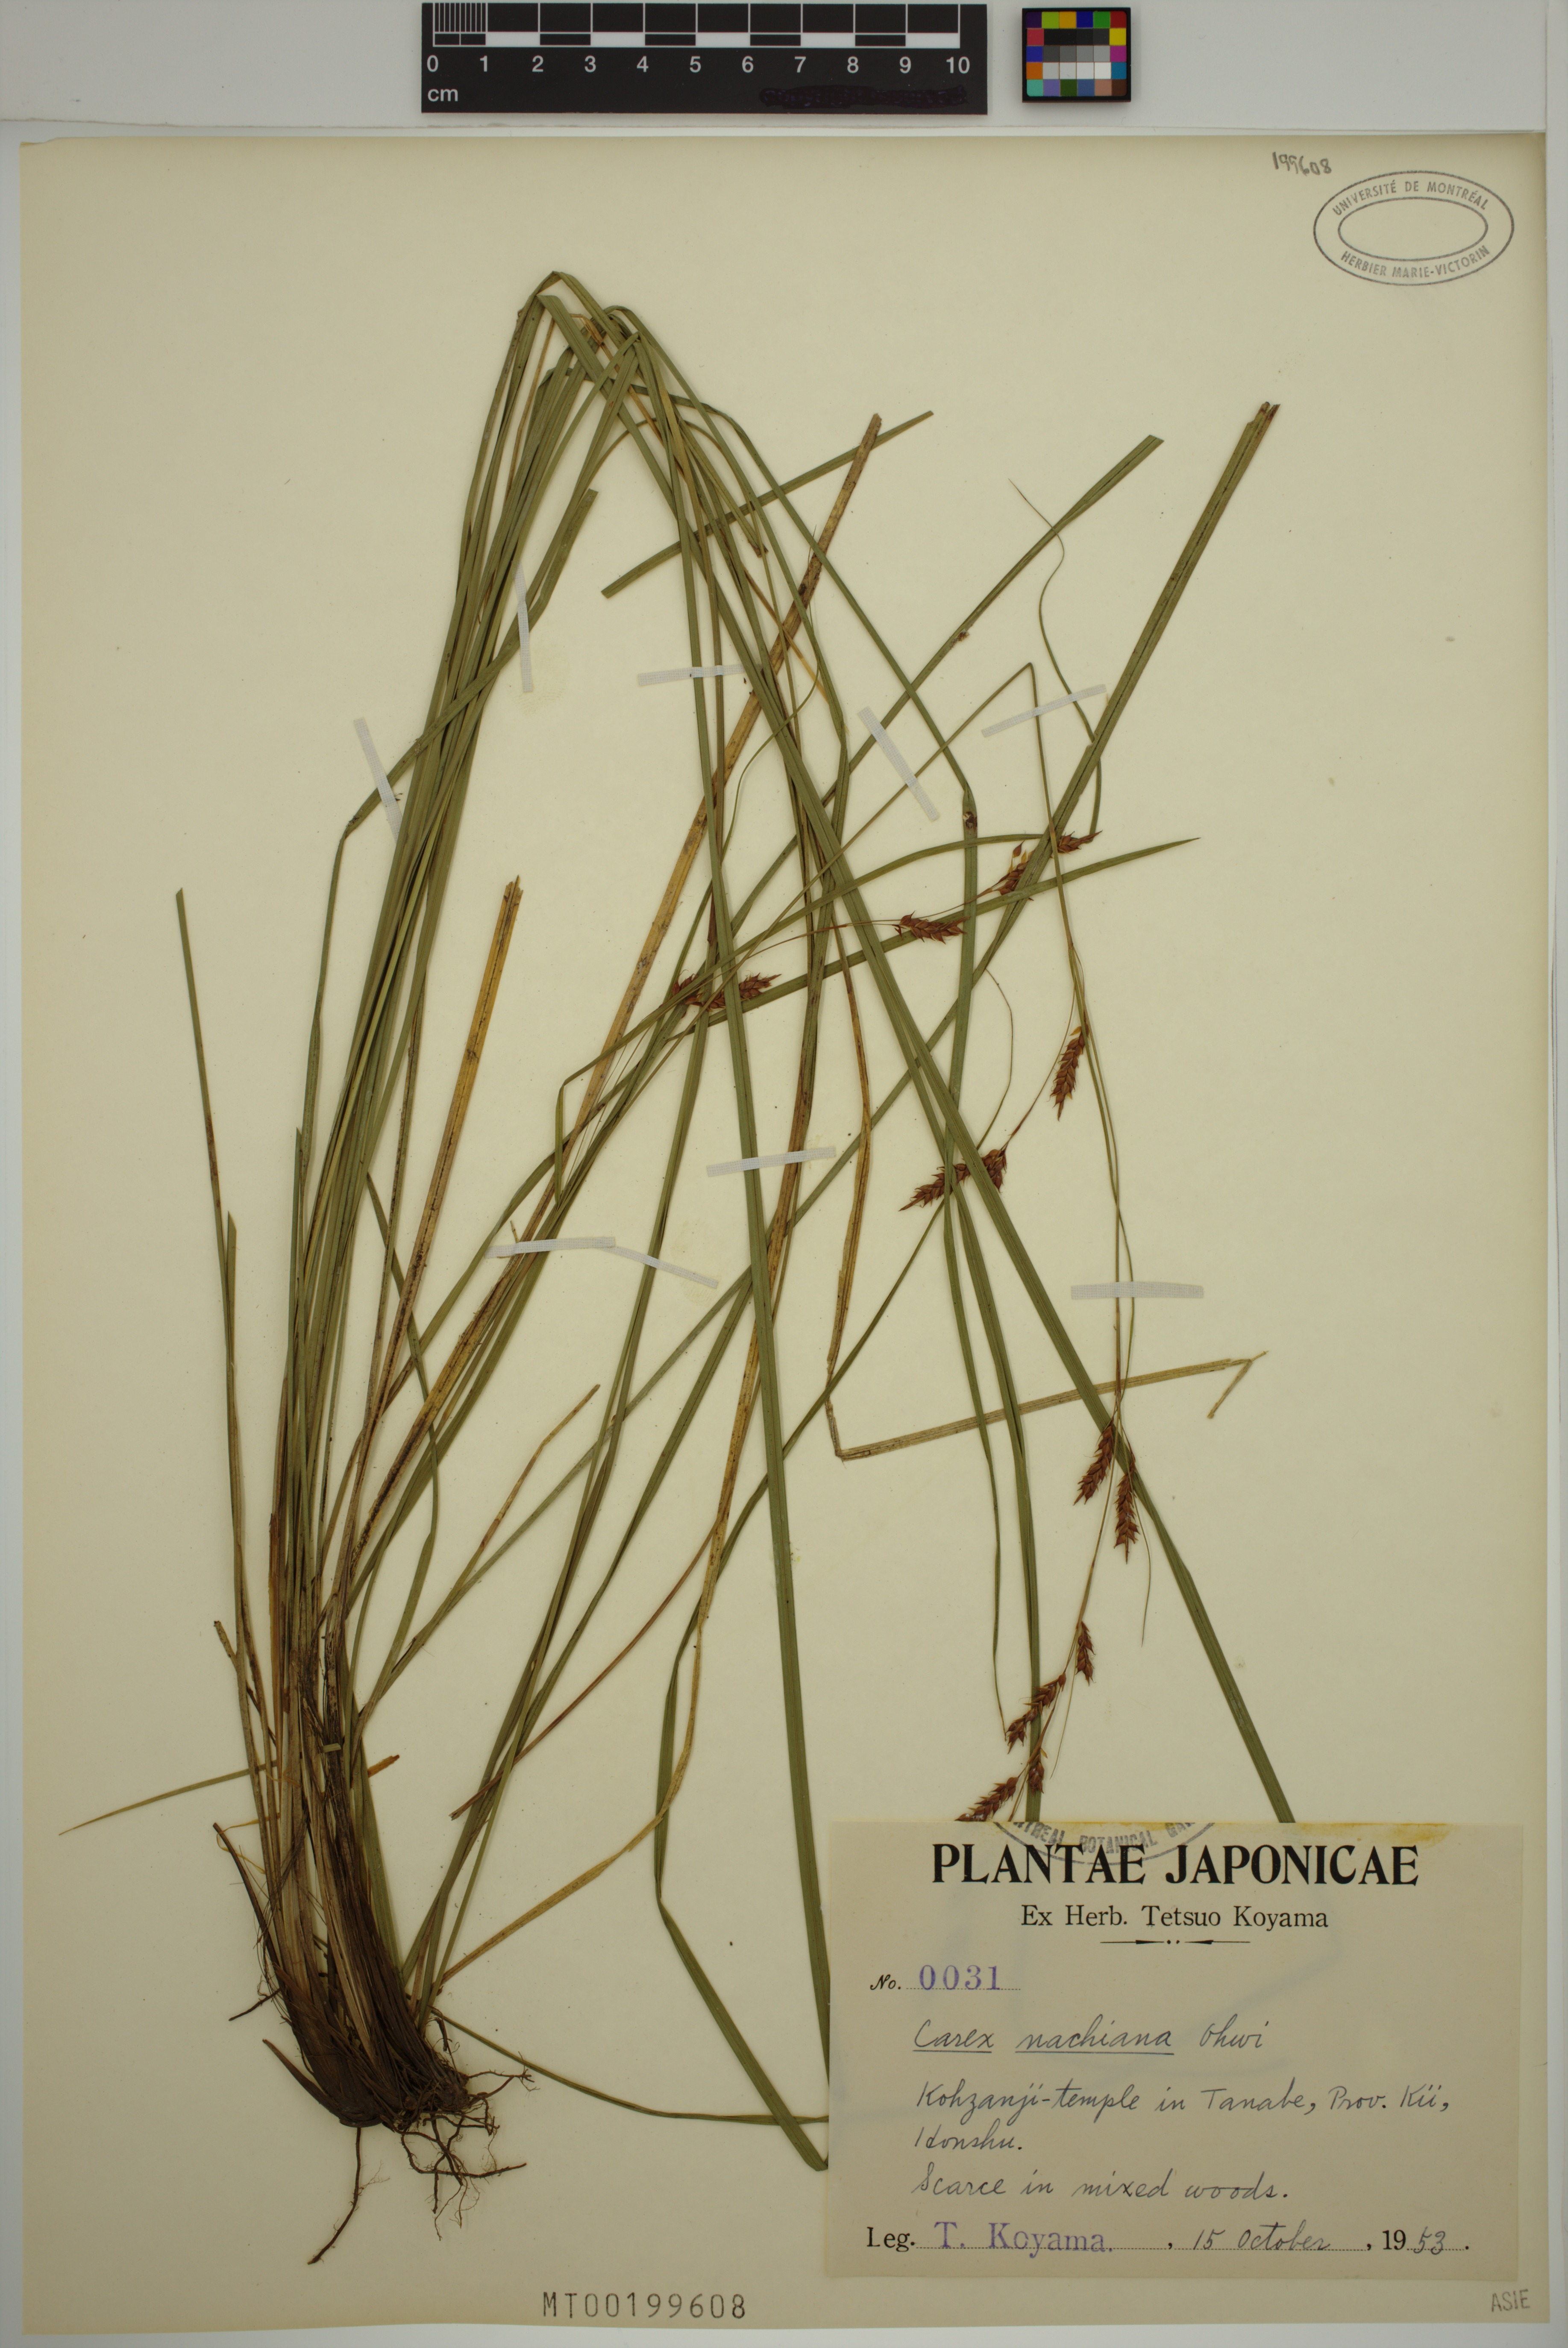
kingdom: Plantae
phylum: Tracheophyta
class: Liliopsida
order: Poales
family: Cyperaceae
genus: Carex
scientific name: Carex nachiana
